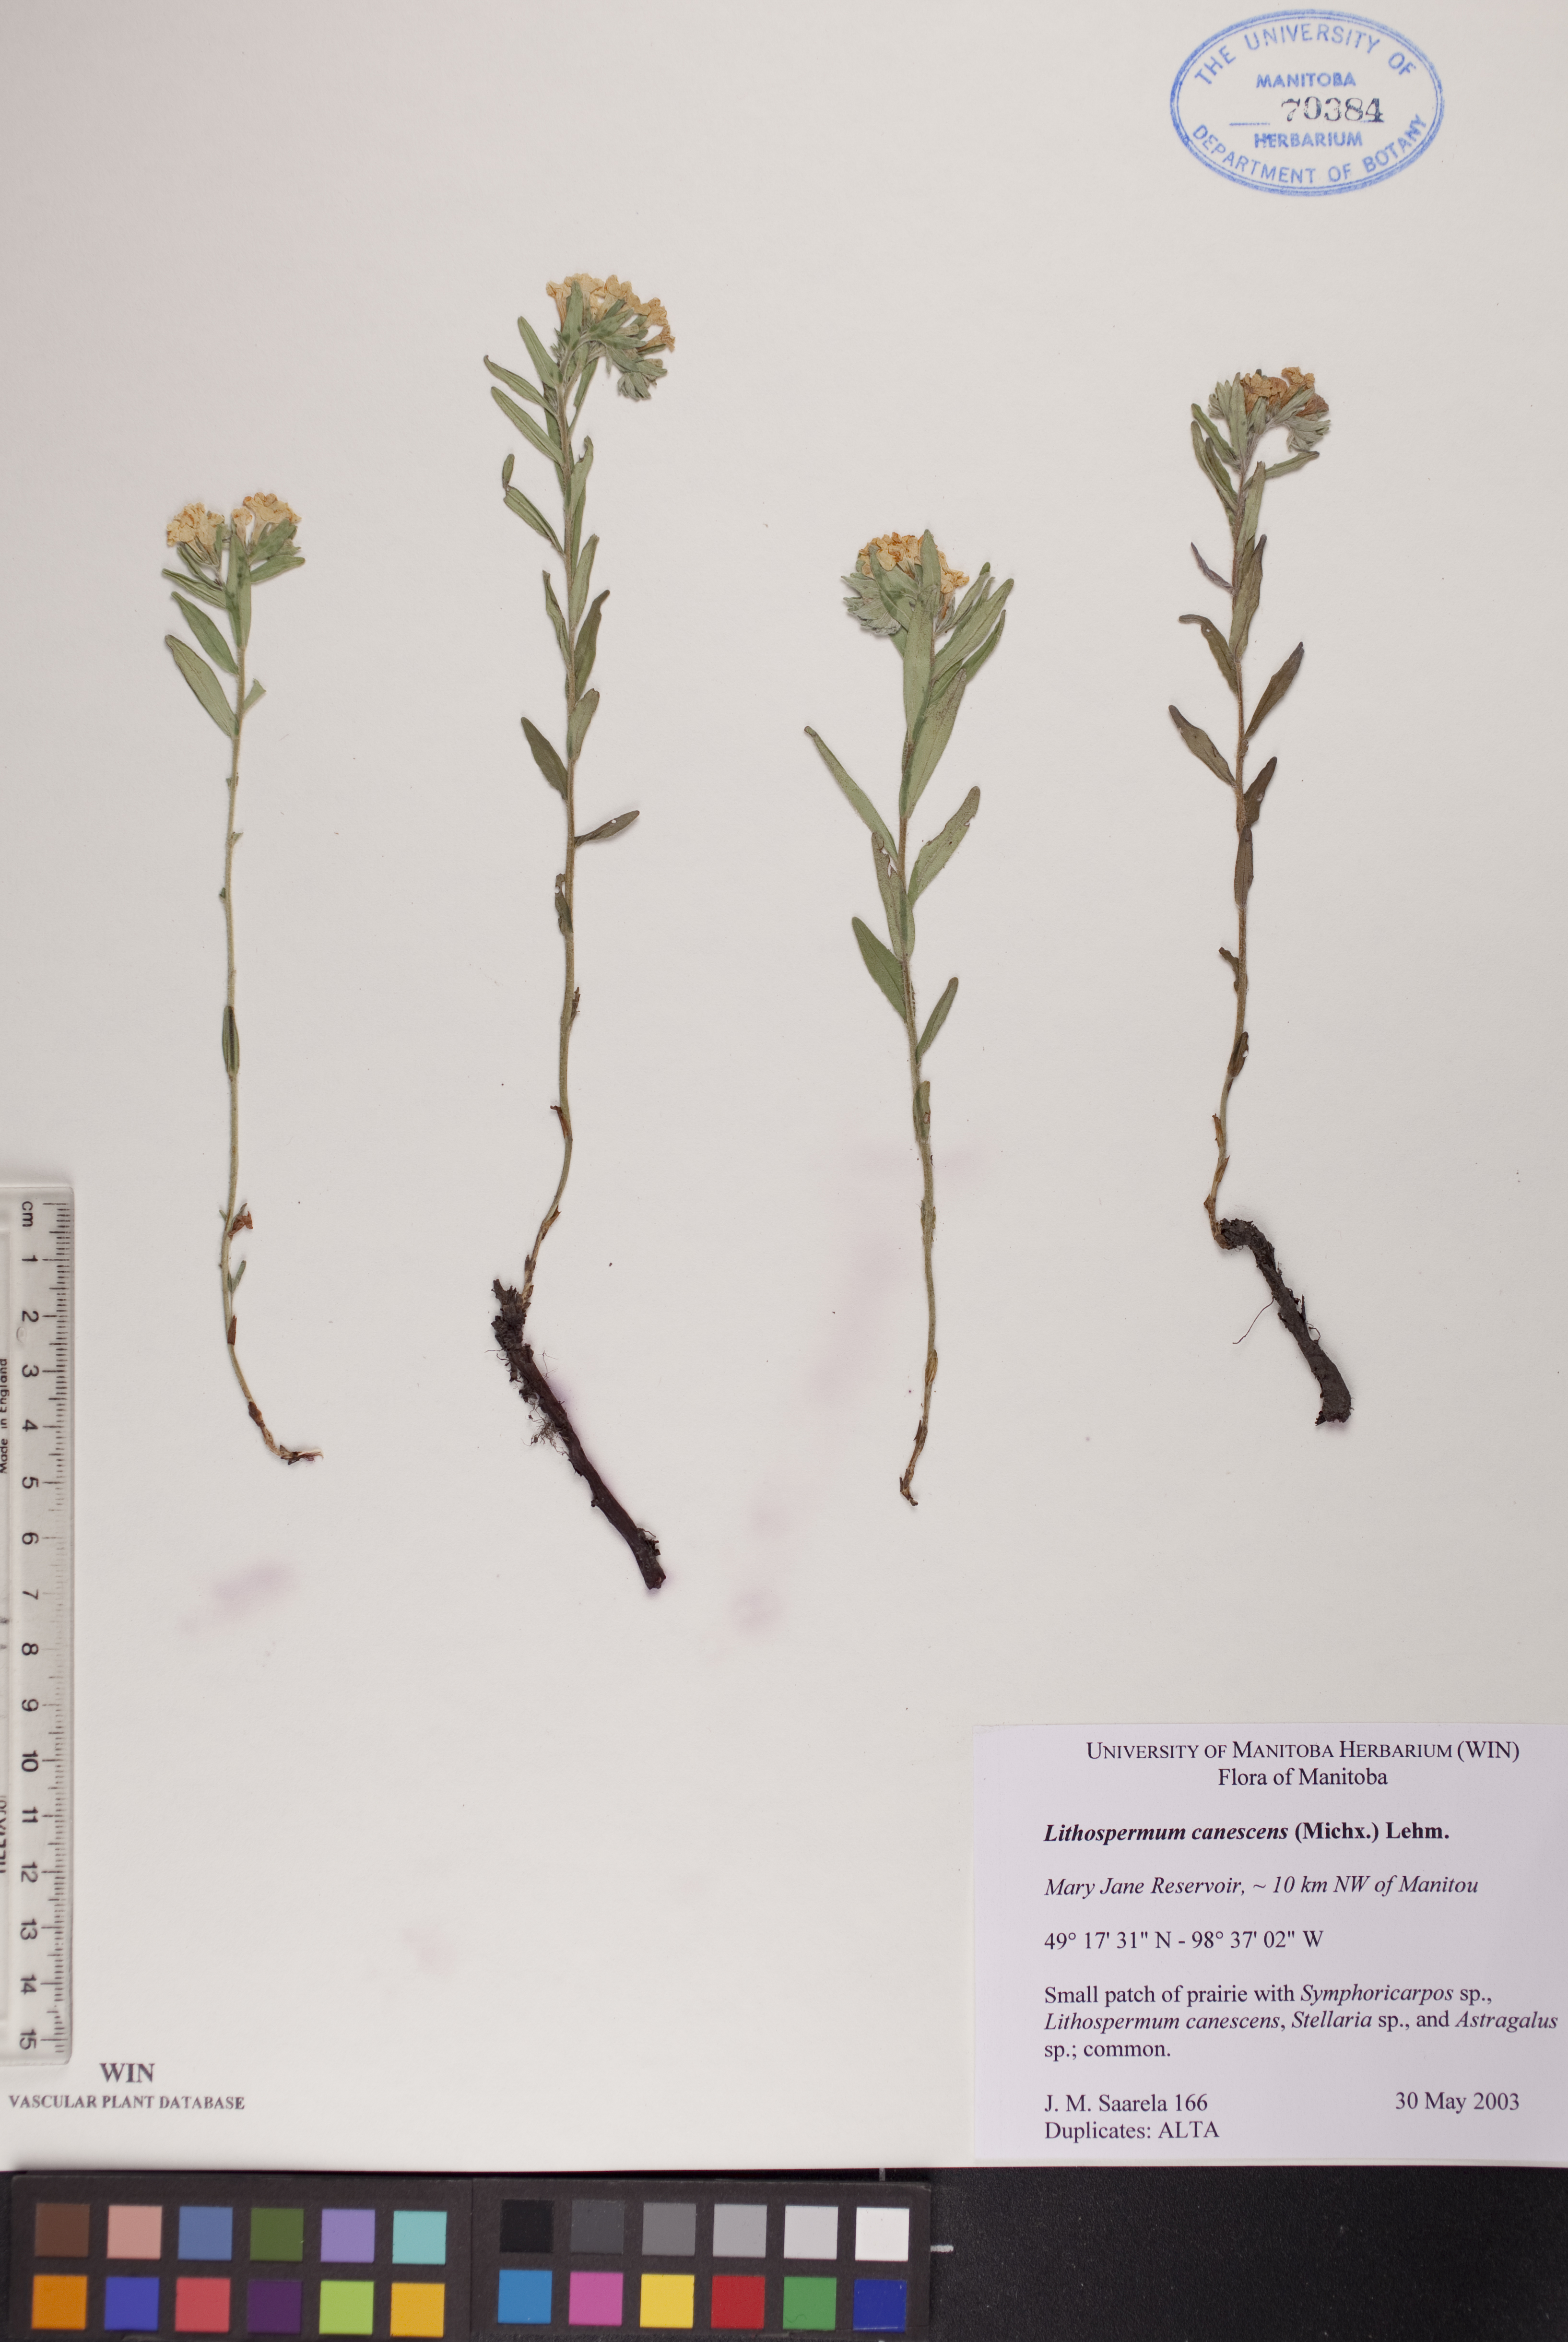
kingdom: Plantae
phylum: Tracheophyta
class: Magnoliopsida
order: Boraginales
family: Boraginaceae
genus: Lithospermum
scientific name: Lithospermum canescens
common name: Hoary puccoon
